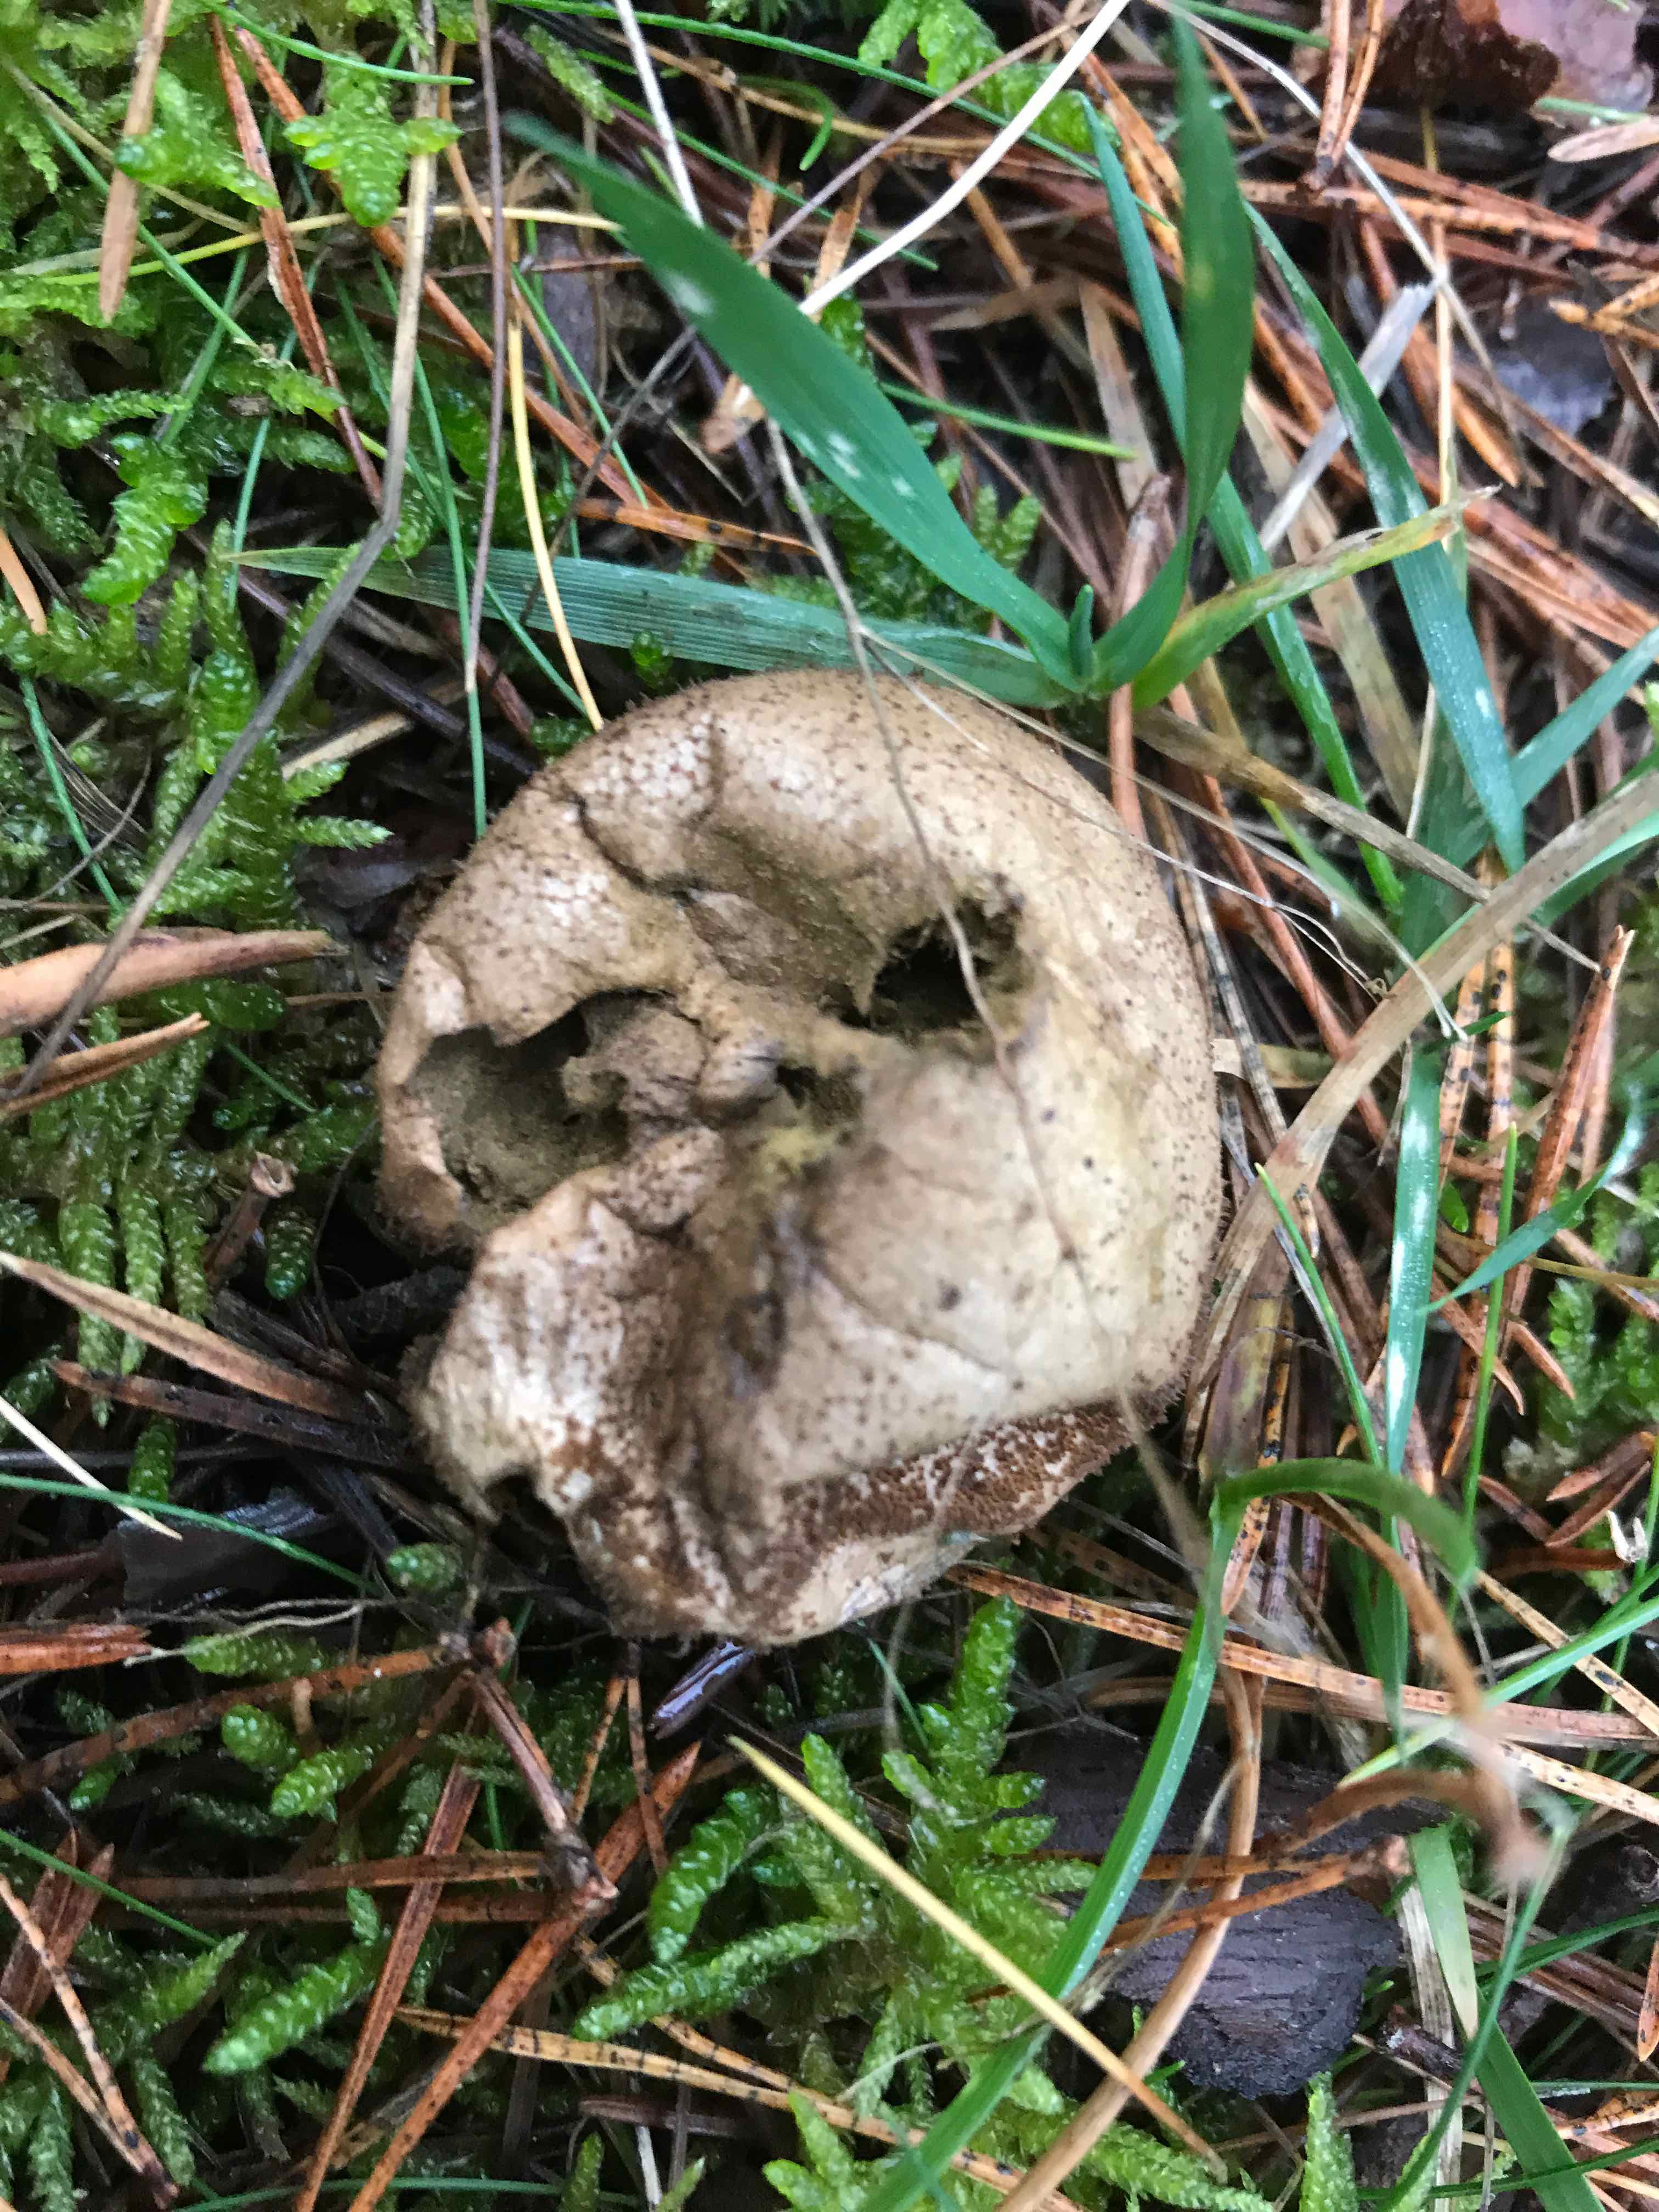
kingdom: Fungi
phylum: Basidiomycota
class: Agaricomycetes
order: Agaricales
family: Lycoperdaceae
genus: Lycoperdon
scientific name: Lycoperdon nigrescens
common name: sortagtig støvbold
